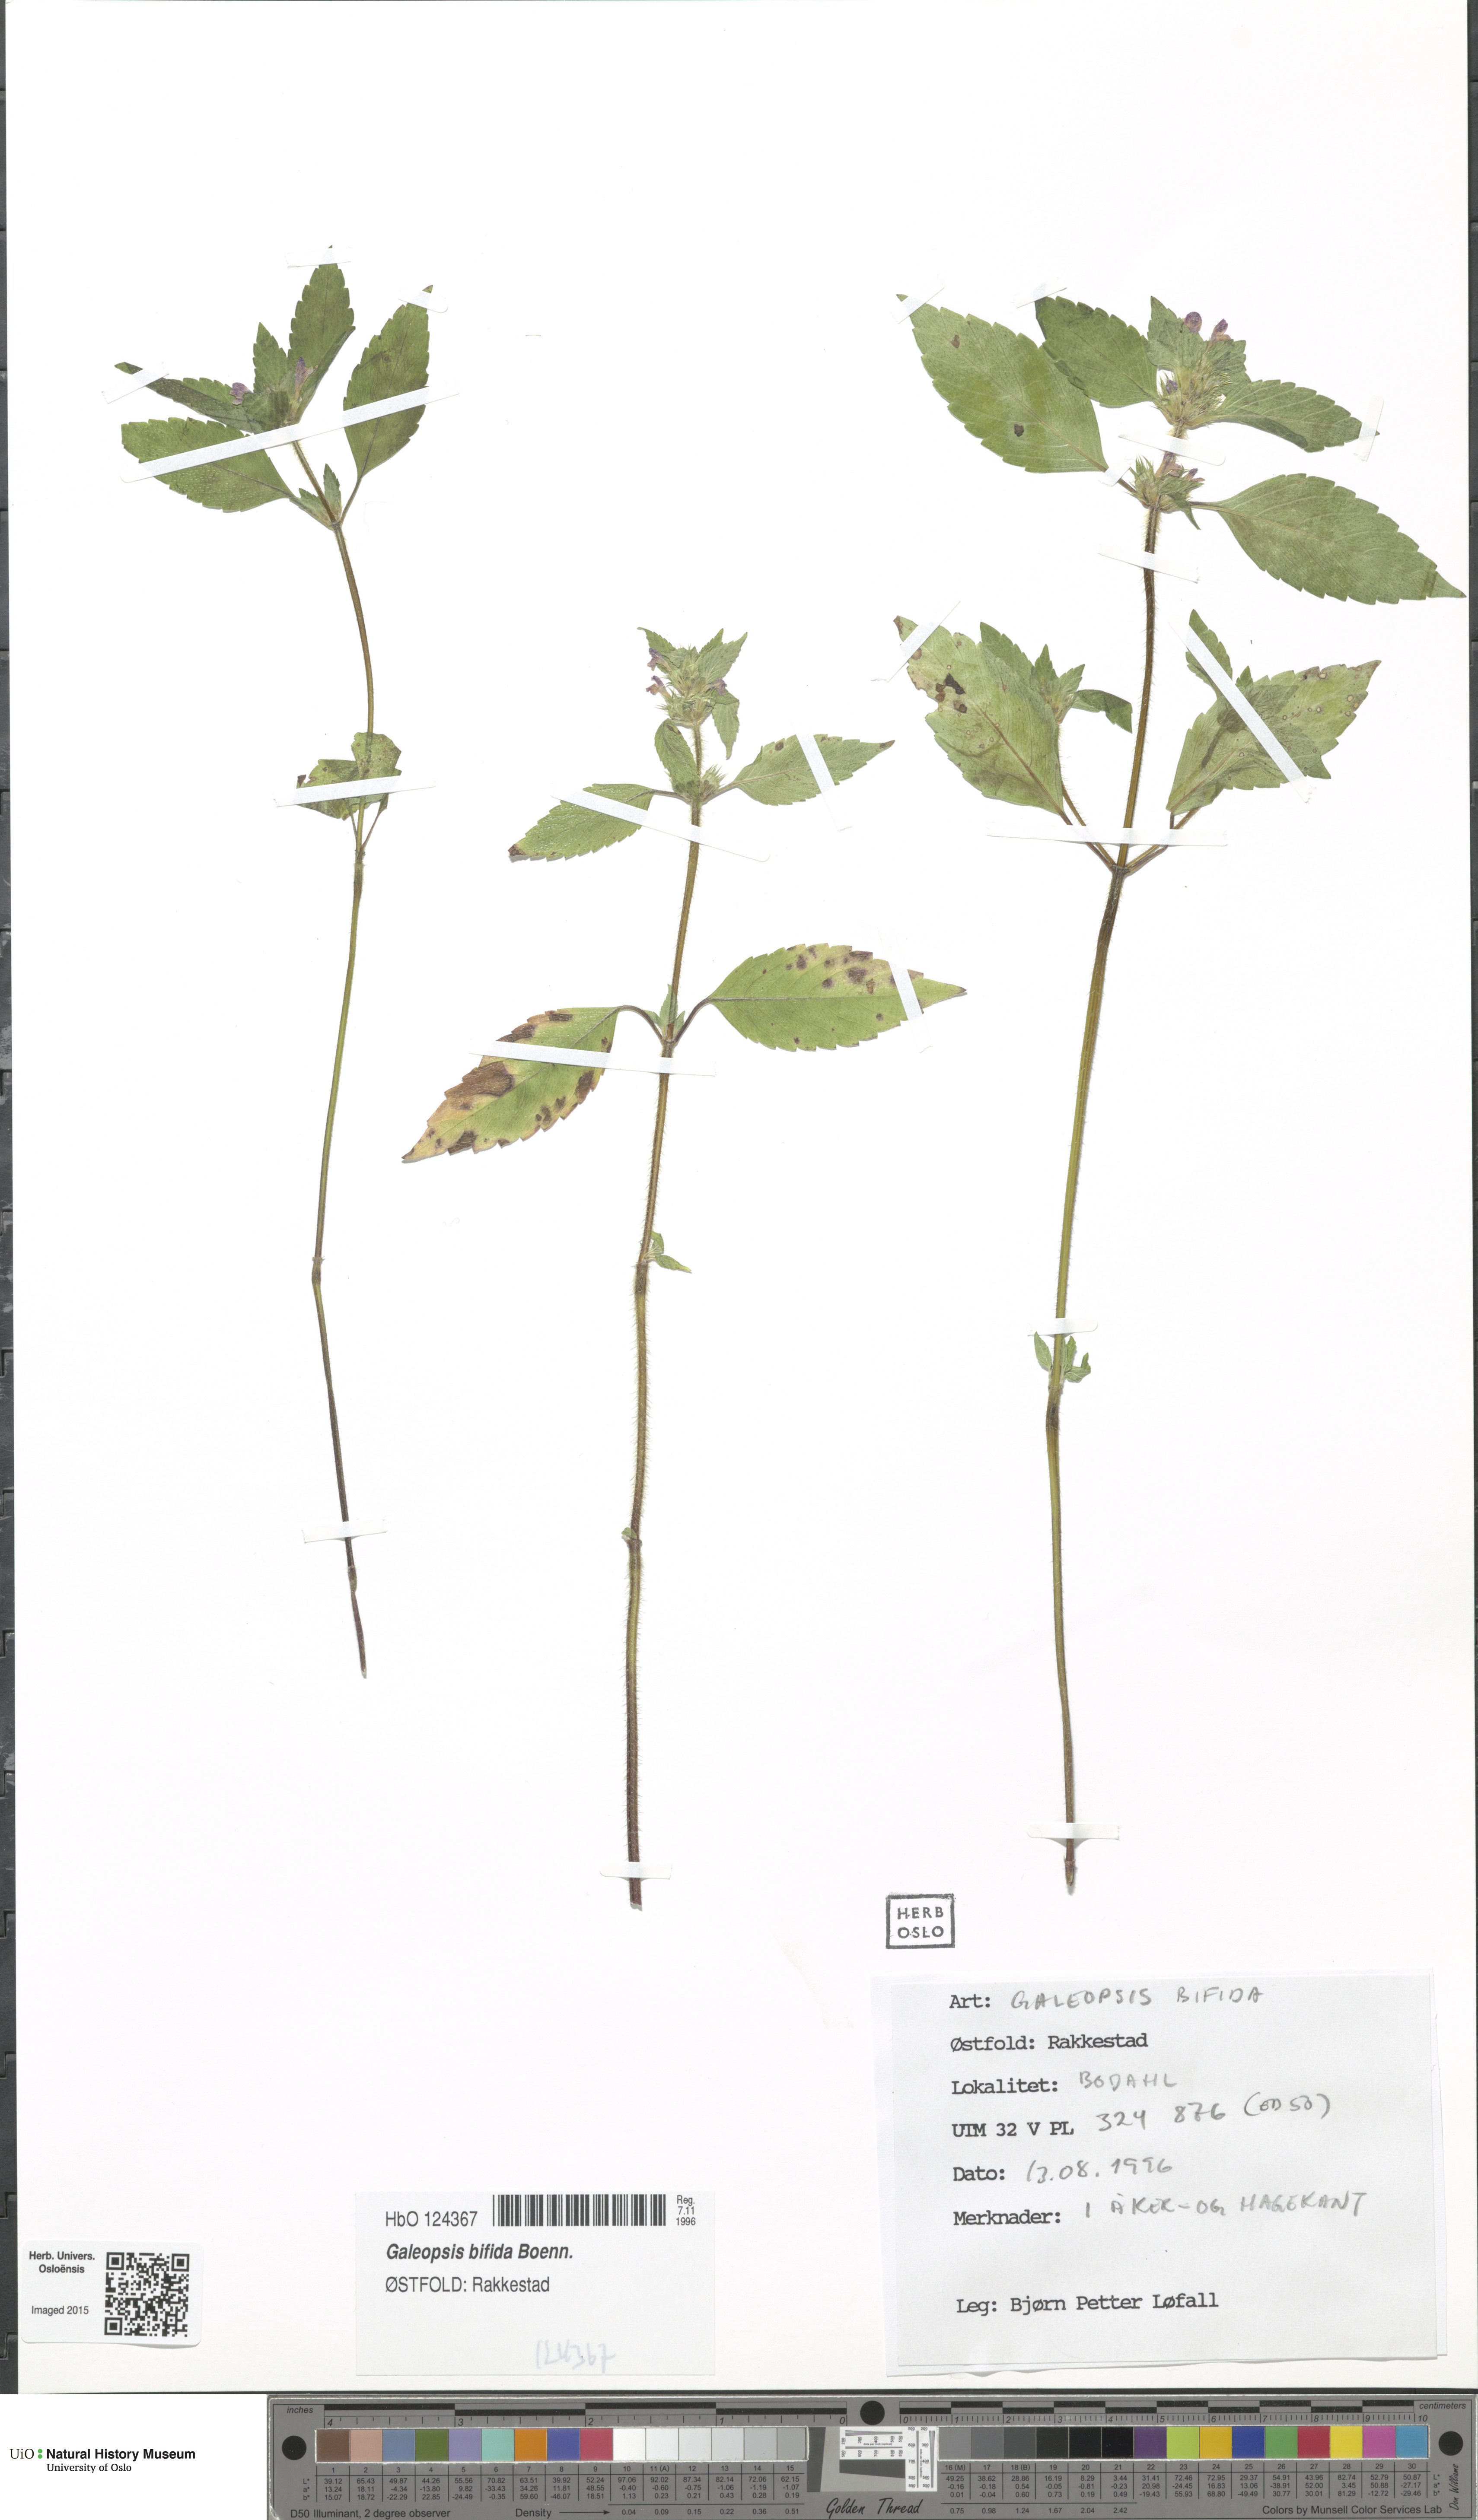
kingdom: Plantae
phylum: Tracheophyta
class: Magnoliopsida
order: Lamiales
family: Lamiaceae
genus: Galeopsis
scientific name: Galeopsis bifida
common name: Bifid hemp-nettle
